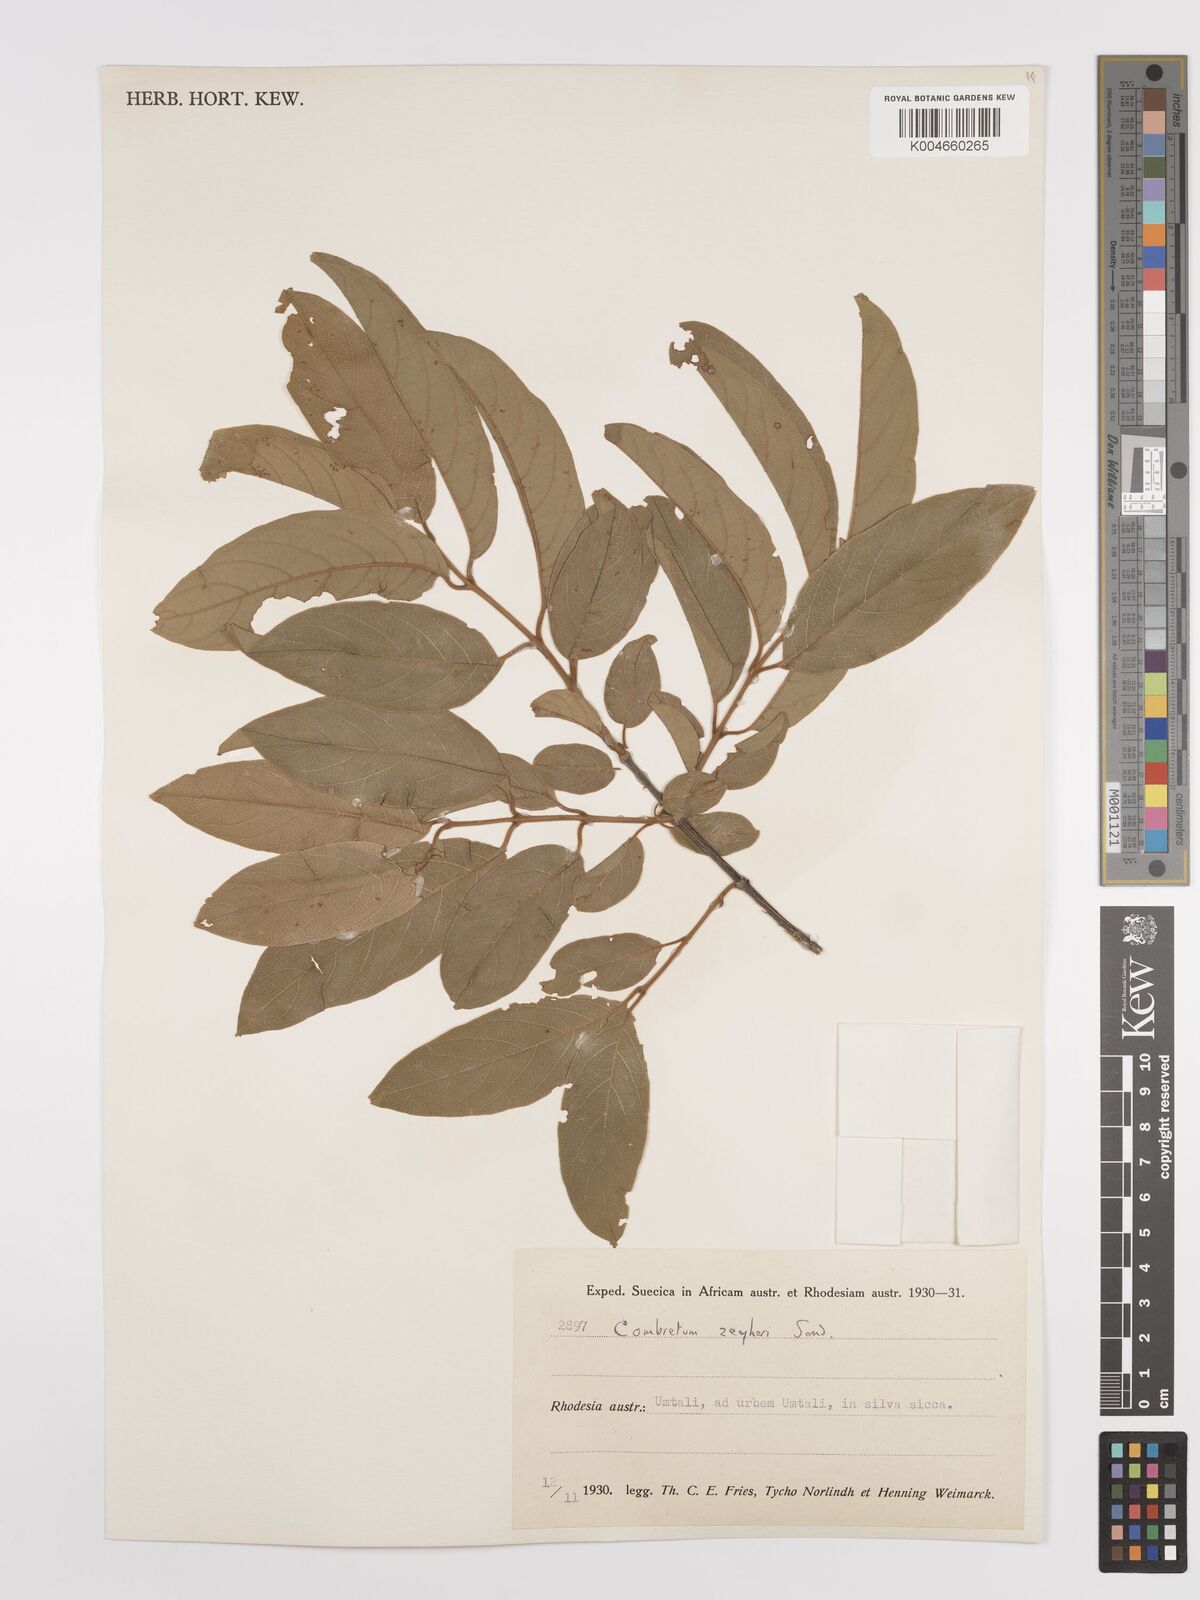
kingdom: Plantae
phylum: Tracheophyta
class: Magnoliopsida
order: Myrtales
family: Combretaceae
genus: Combretum
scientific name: Combretum zeyheri
